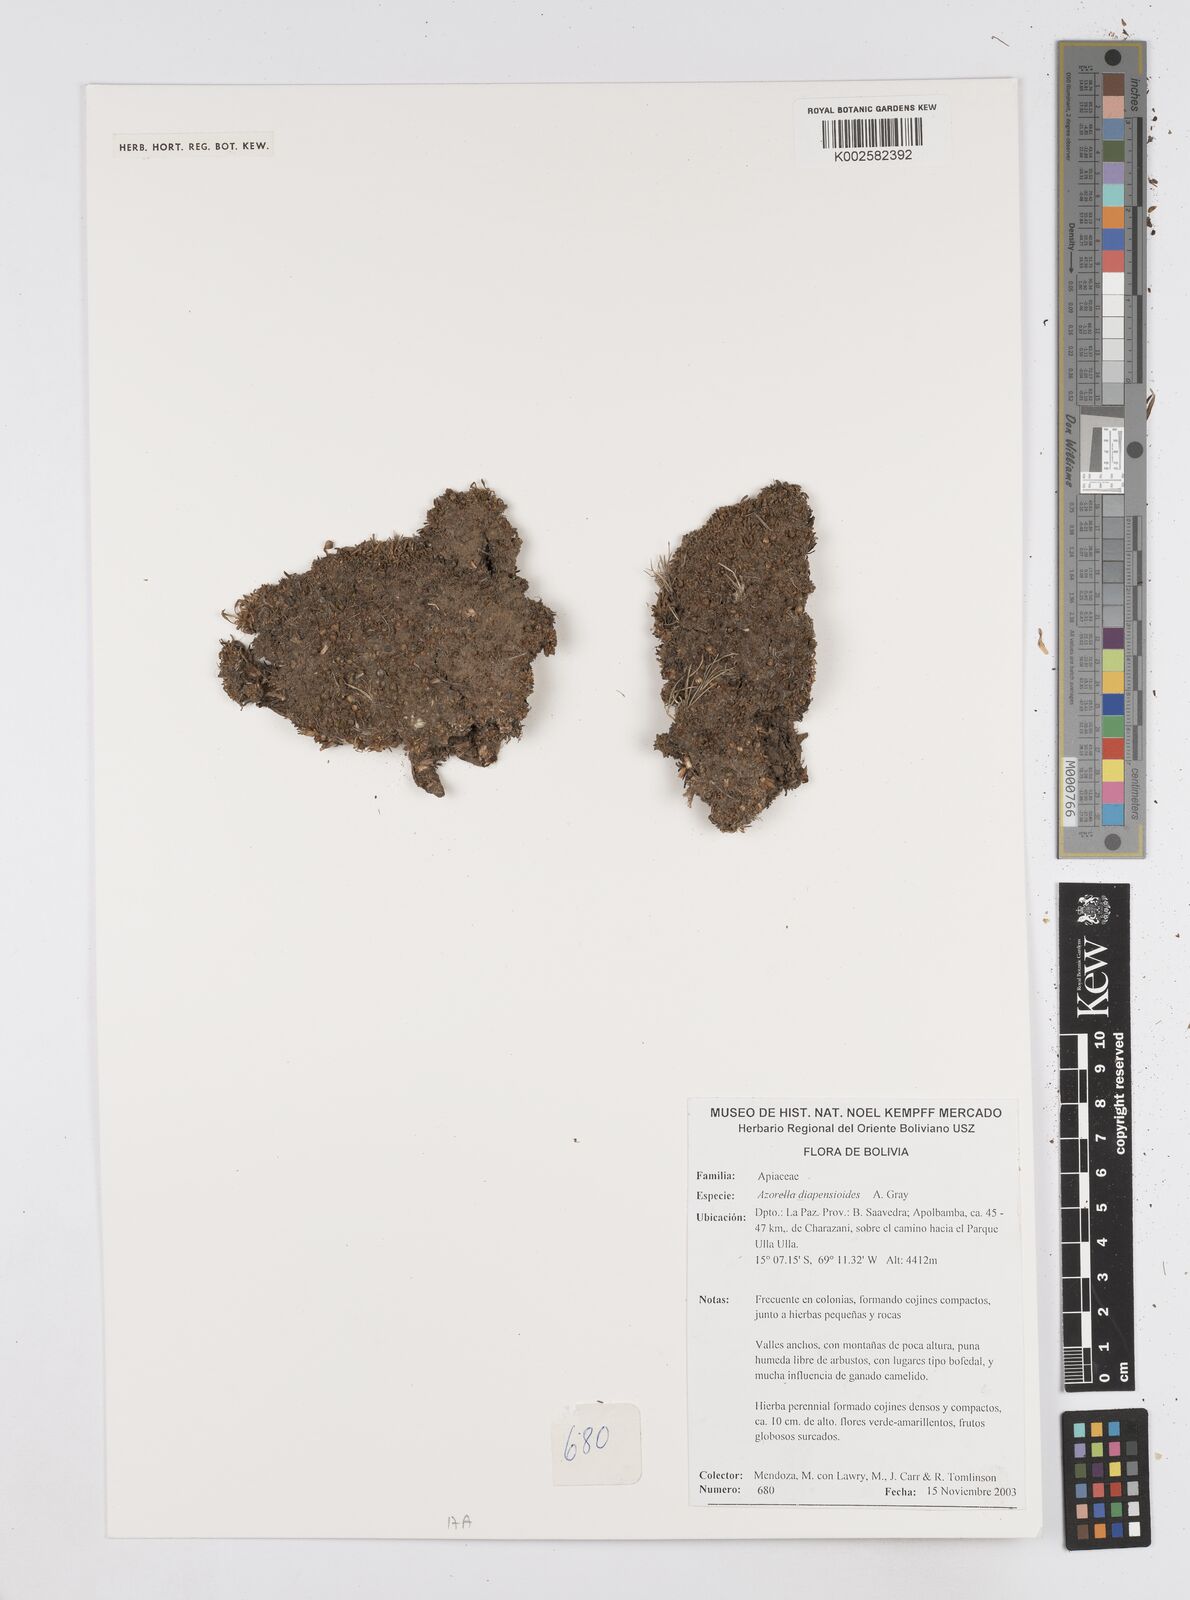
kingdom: Plantae
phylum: Tracheophyta
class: Magnoliopsida
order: Apiales
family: Apiaceae
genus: Azorella
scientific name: Azorella diapensioides
